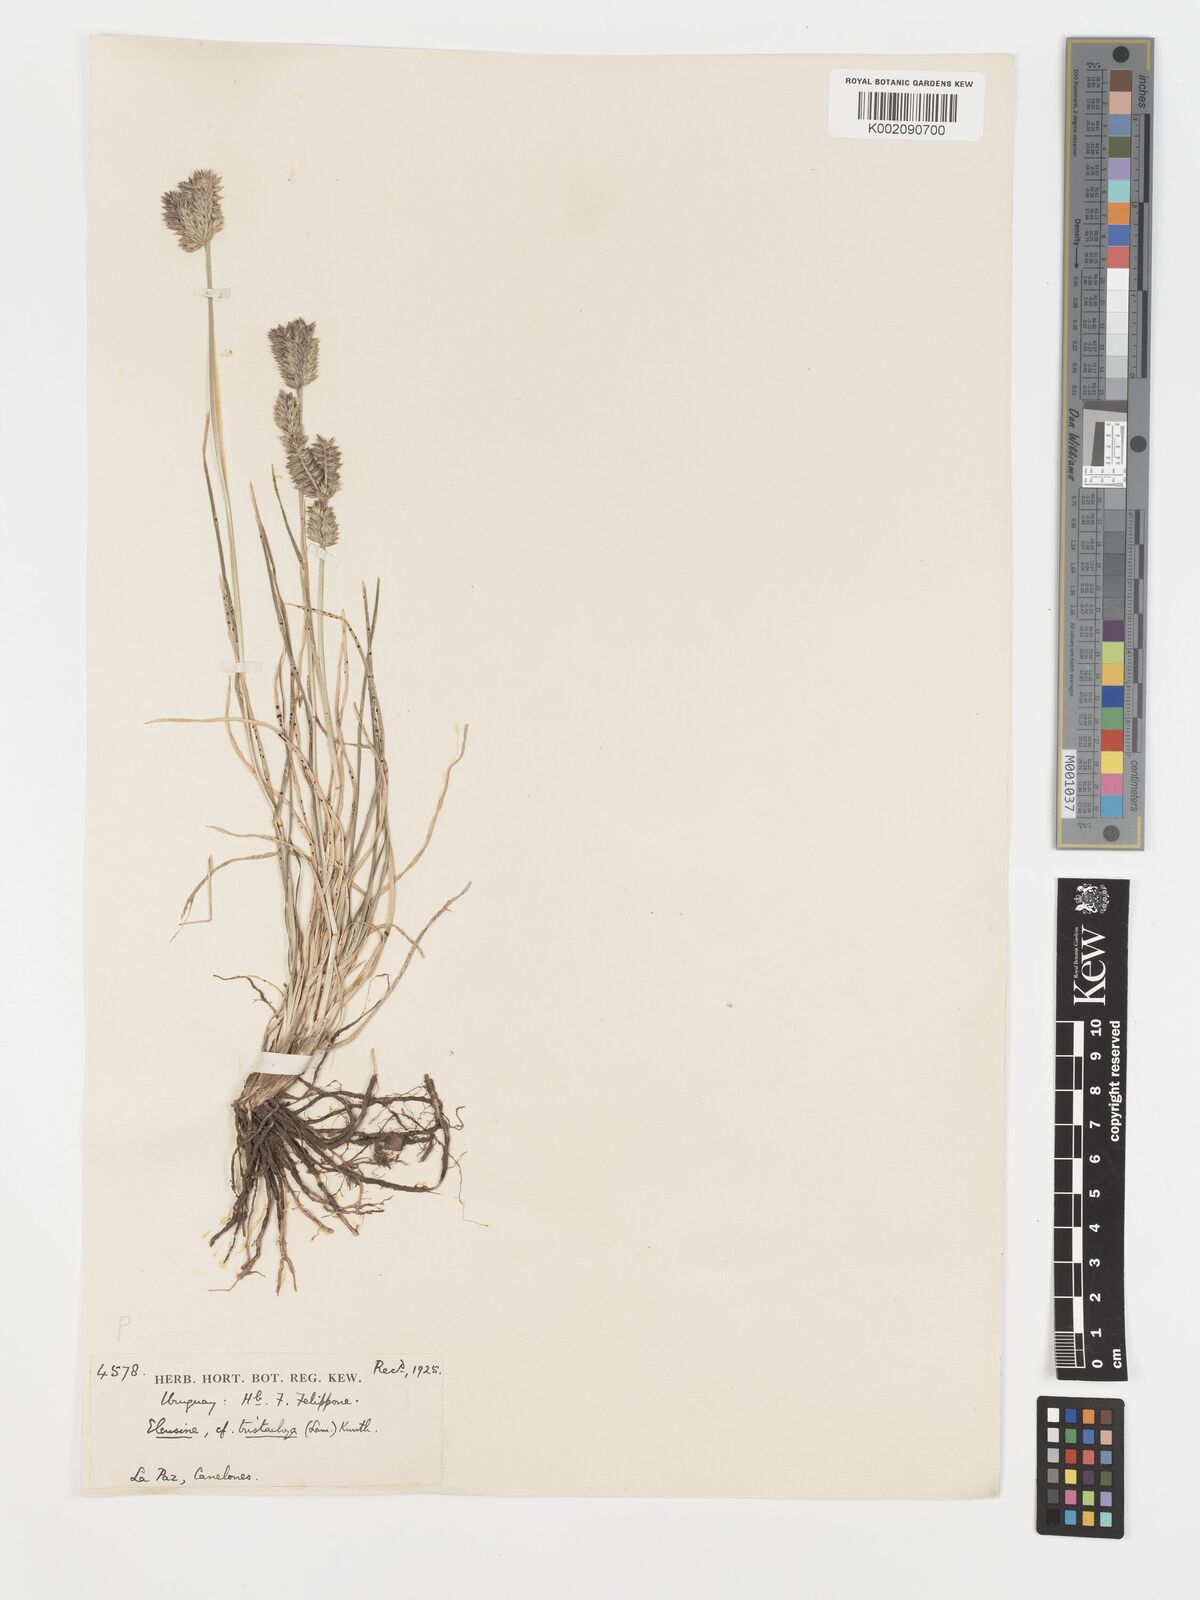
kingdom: Plantae
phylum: Tracheophyta
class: Liliopsida
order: Poales
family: Poaceae
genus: Eleusine
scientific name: Eleusine tristachya
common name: American yard-grass
